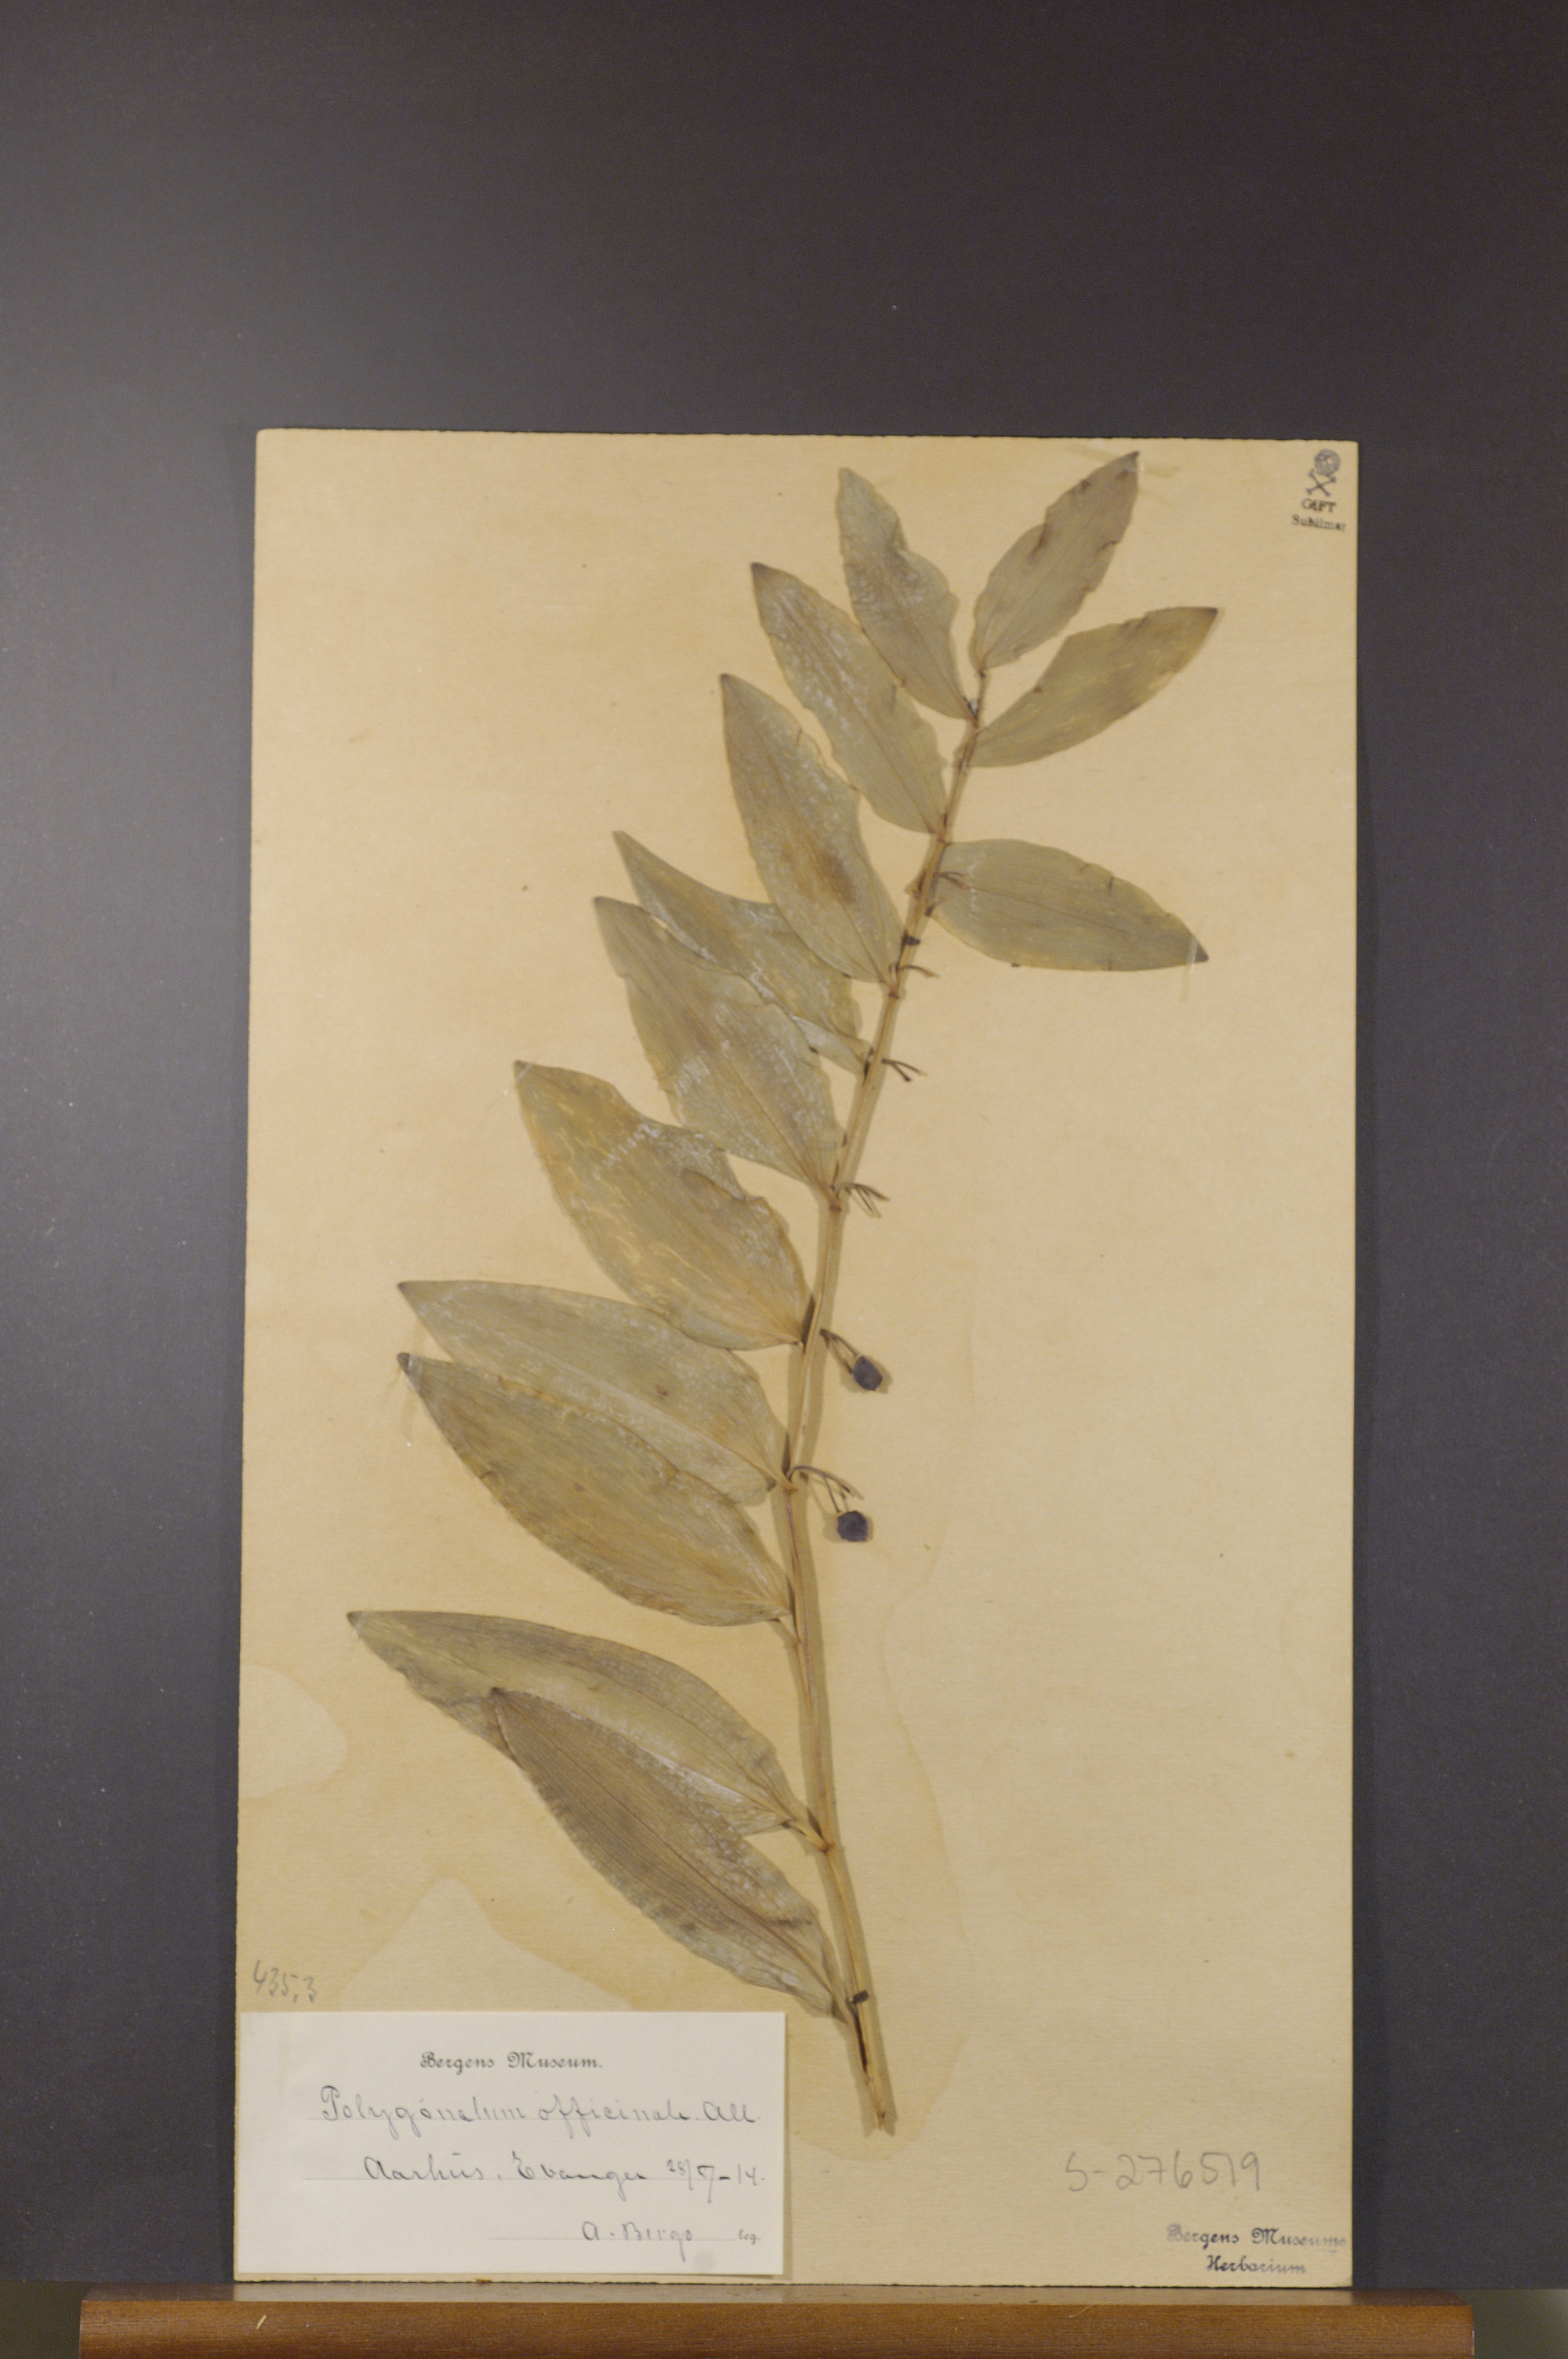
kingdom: Plantae
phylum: Tracheophyta
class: Liliopsida
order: Asparagales
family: Asparagaceae
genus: Polygonatum
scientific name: Polygonatum odoratum
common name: Angular solomon's-seal
